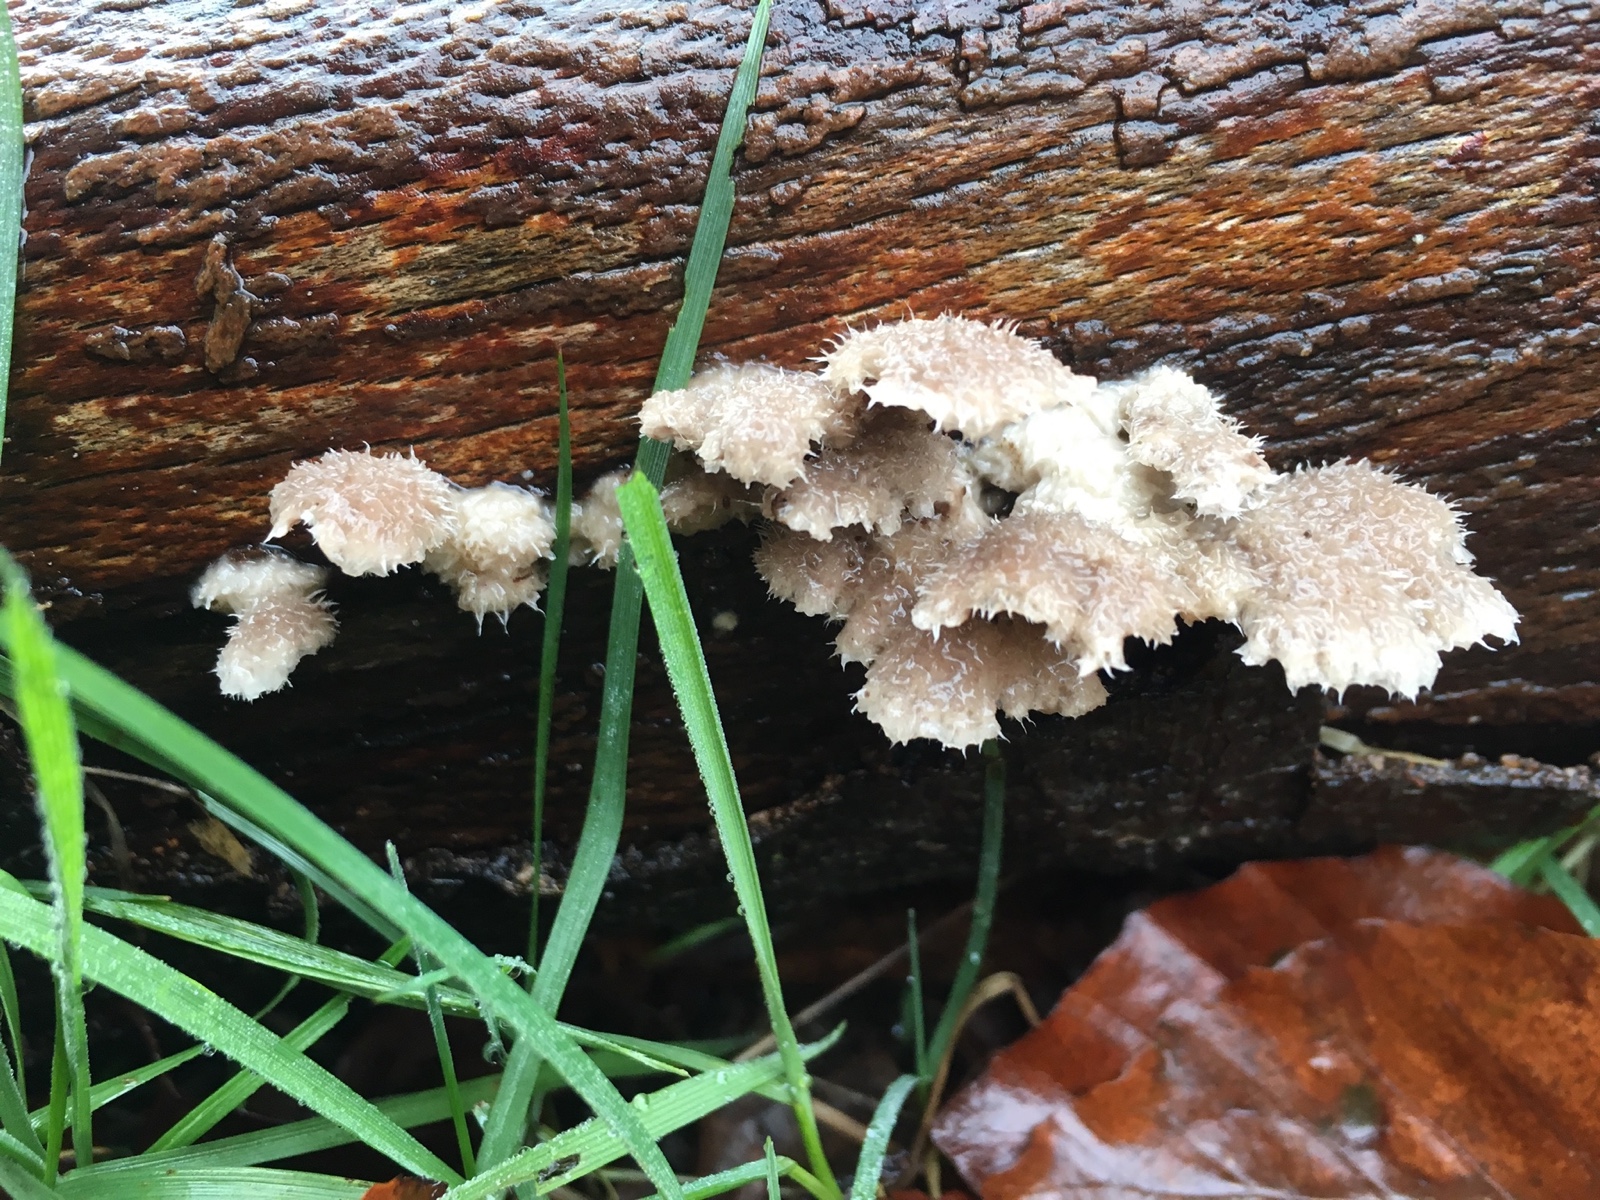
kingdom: Fungi
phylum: Basidiomycota
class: Agaricomycetes
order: Agaricales
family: Schizophyllaceae
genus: Schizophyllum
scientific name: Schizophyllum commune
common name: kløvblad
